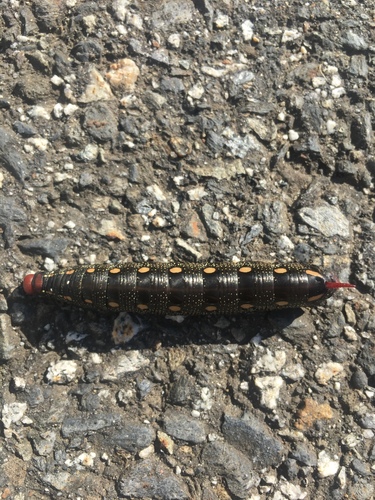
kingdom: Animalia
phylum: Arthropoda
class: Insecta
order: Lepidoptera
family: Sphingidae
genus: Hyles
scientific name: Hyles gallii
